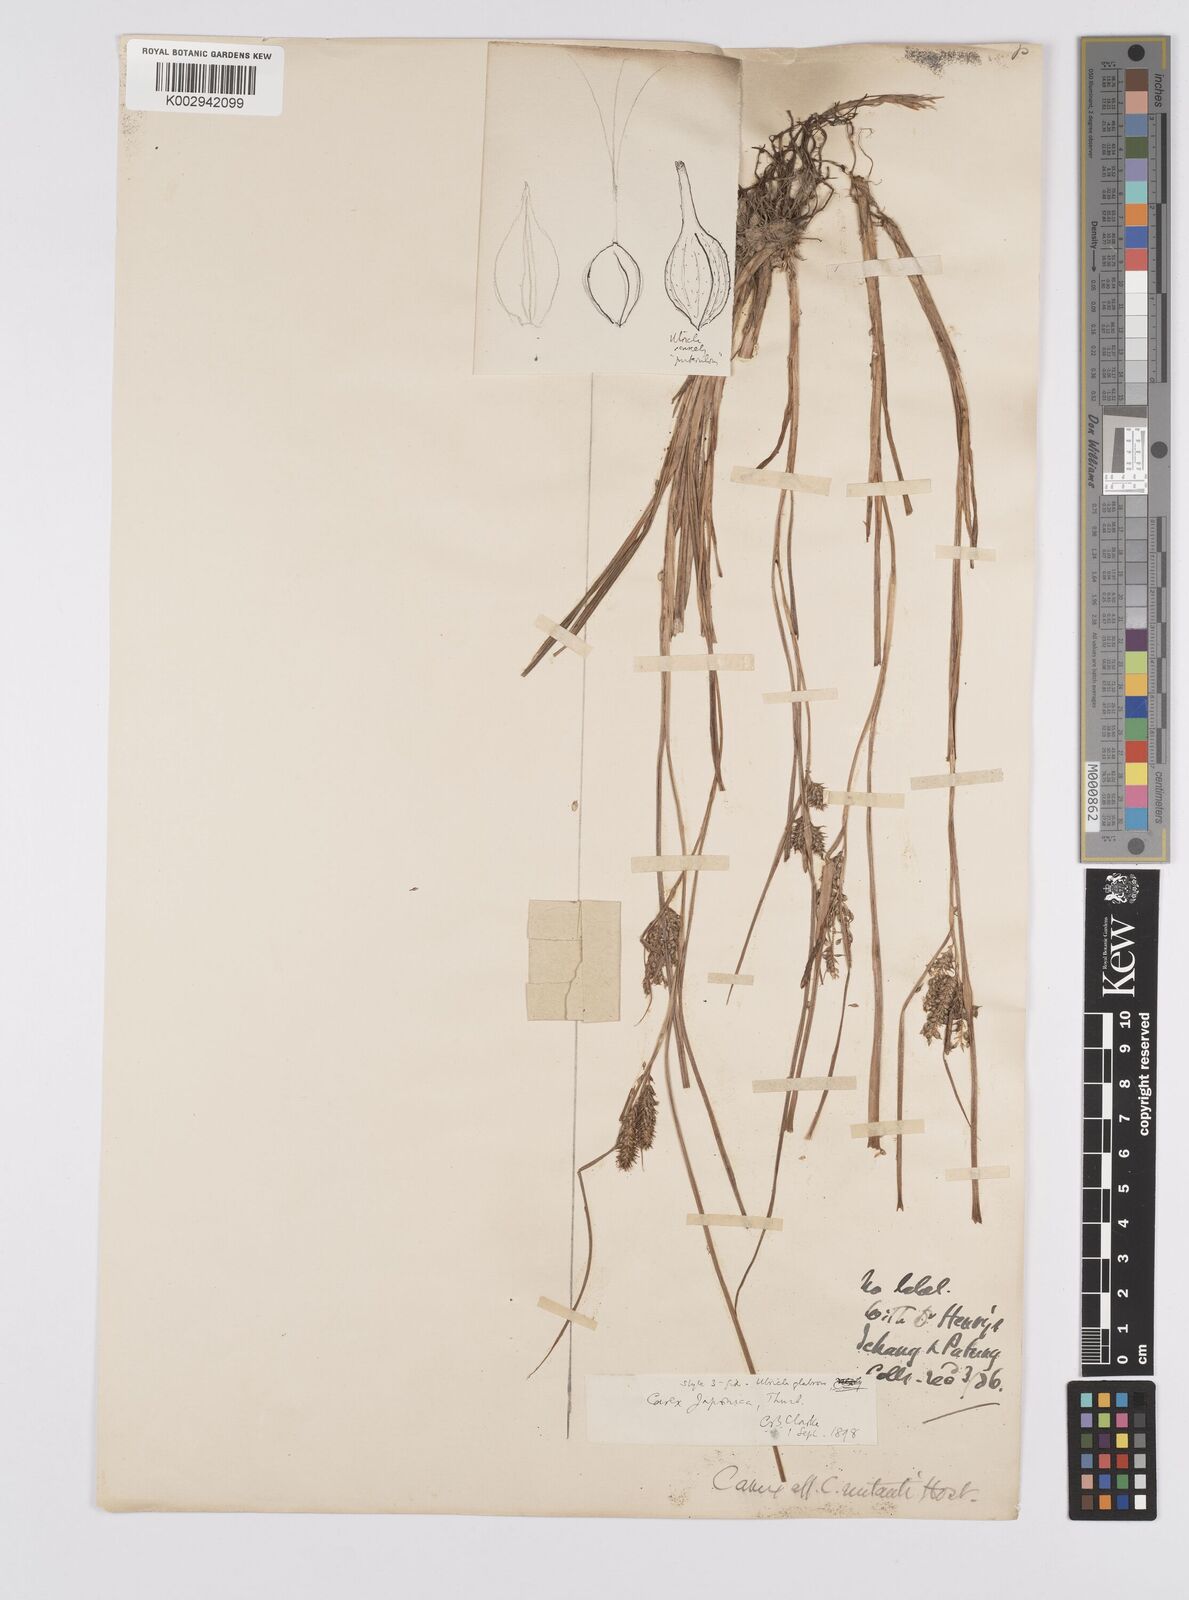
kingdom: Plantae
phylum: Tracheophyta
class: Liliopsida
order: Poales
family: Cyperaceae
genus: Carex
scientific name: Carex japonica
